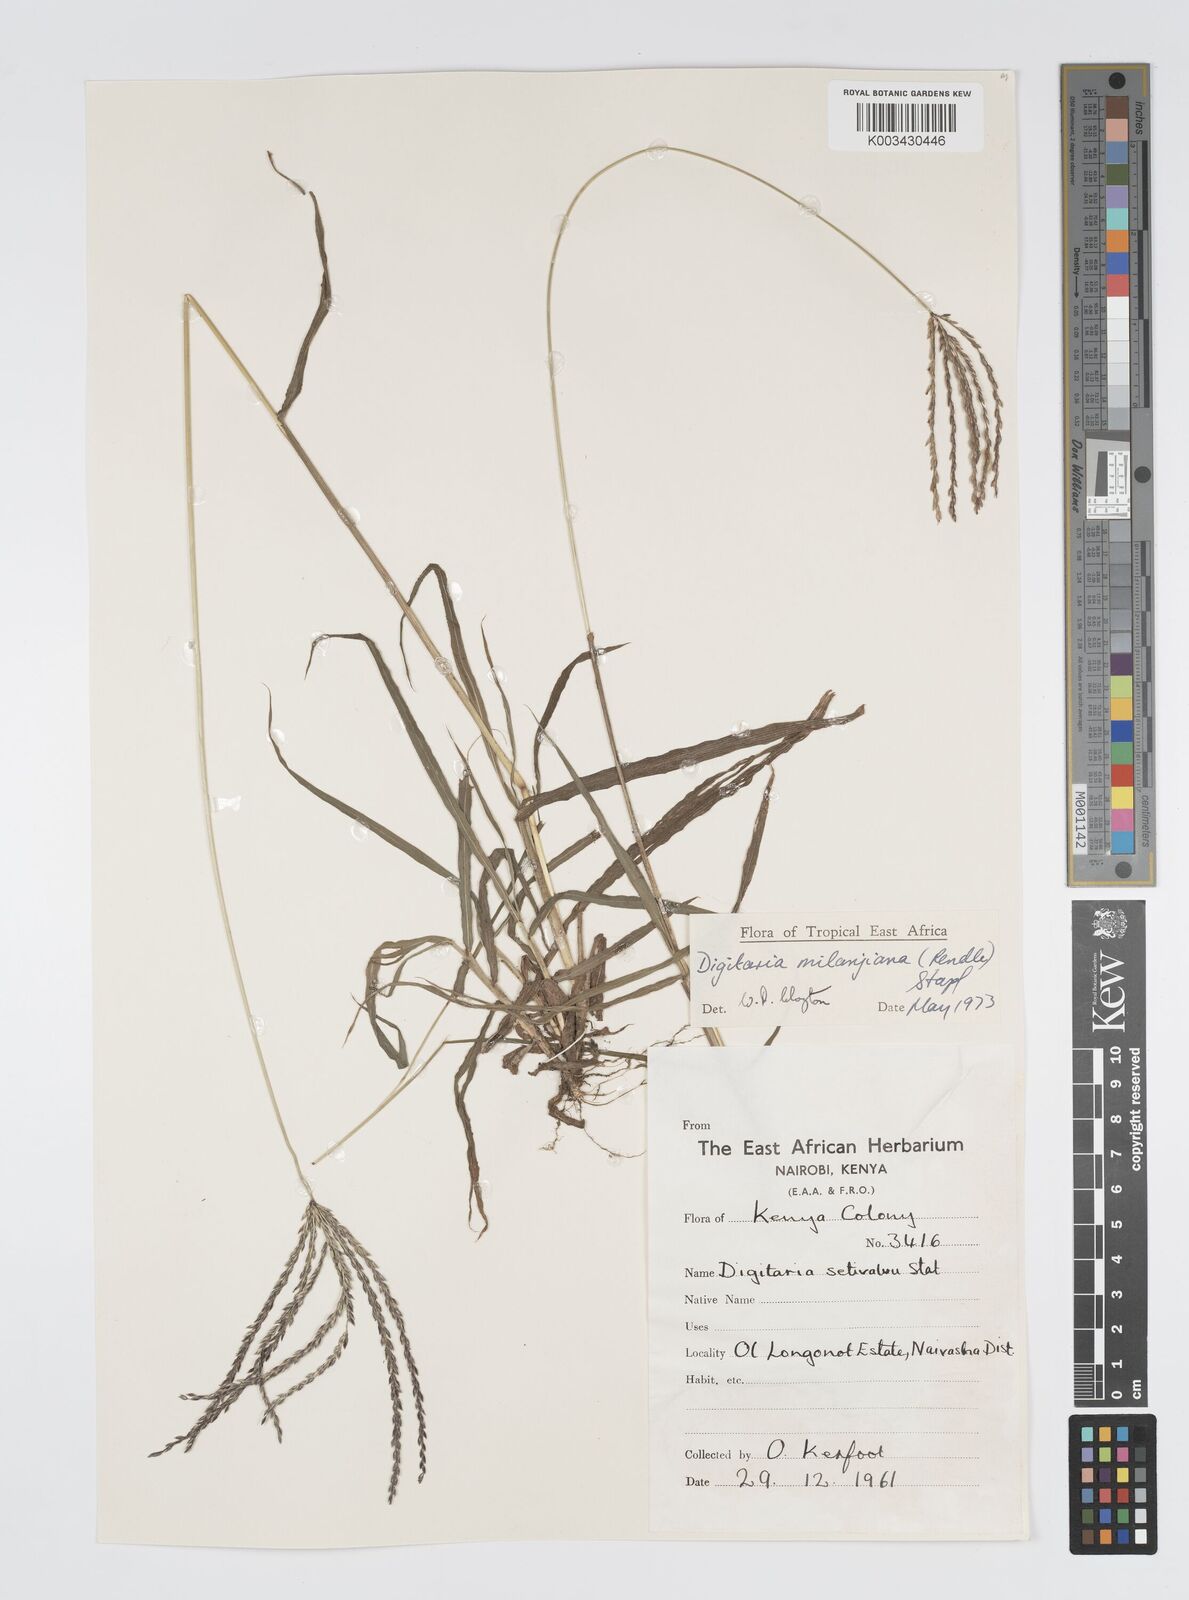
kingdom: Plantae
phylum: Tracheophyta
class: Liliopsida
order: Poales
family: Poaceae
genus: Digitaria
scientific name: Digitaria milanjiana
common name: Madagascar crabgrass
